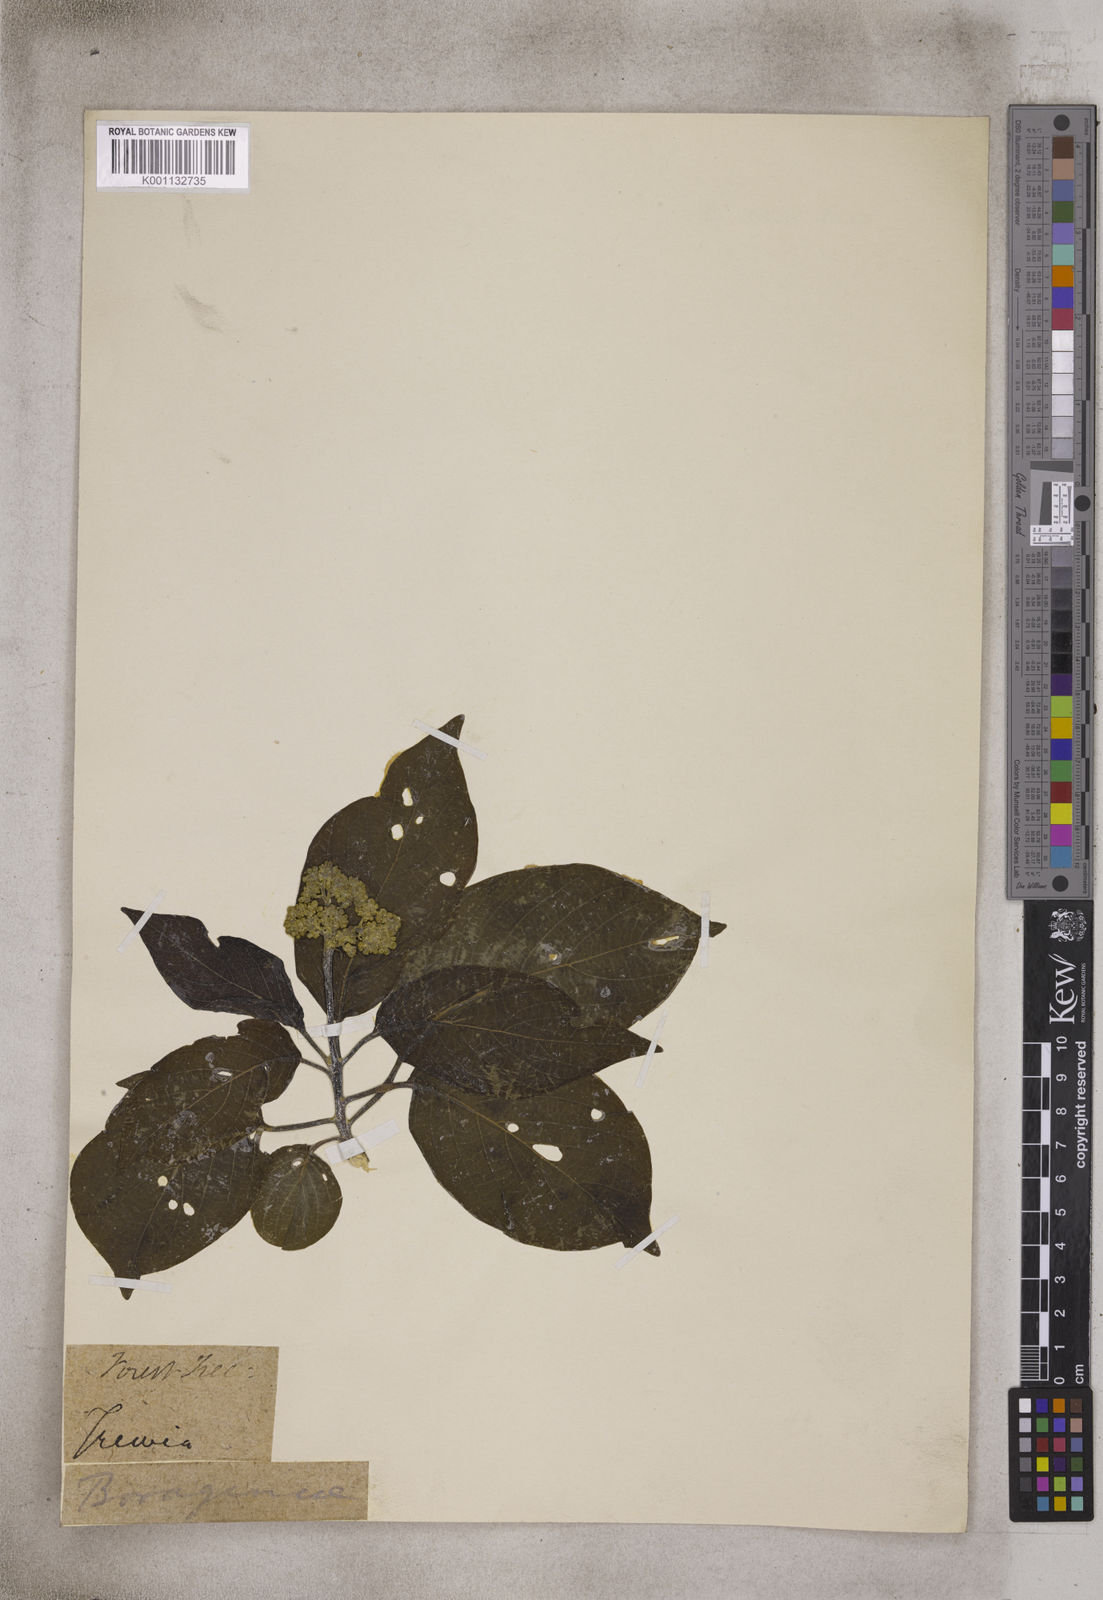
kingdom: Plantae
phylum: Tracheophyta
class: Magnoliopsida
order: Malpighiales
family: Euphorbiaceae
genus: Mallotus
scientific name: Mallotus
